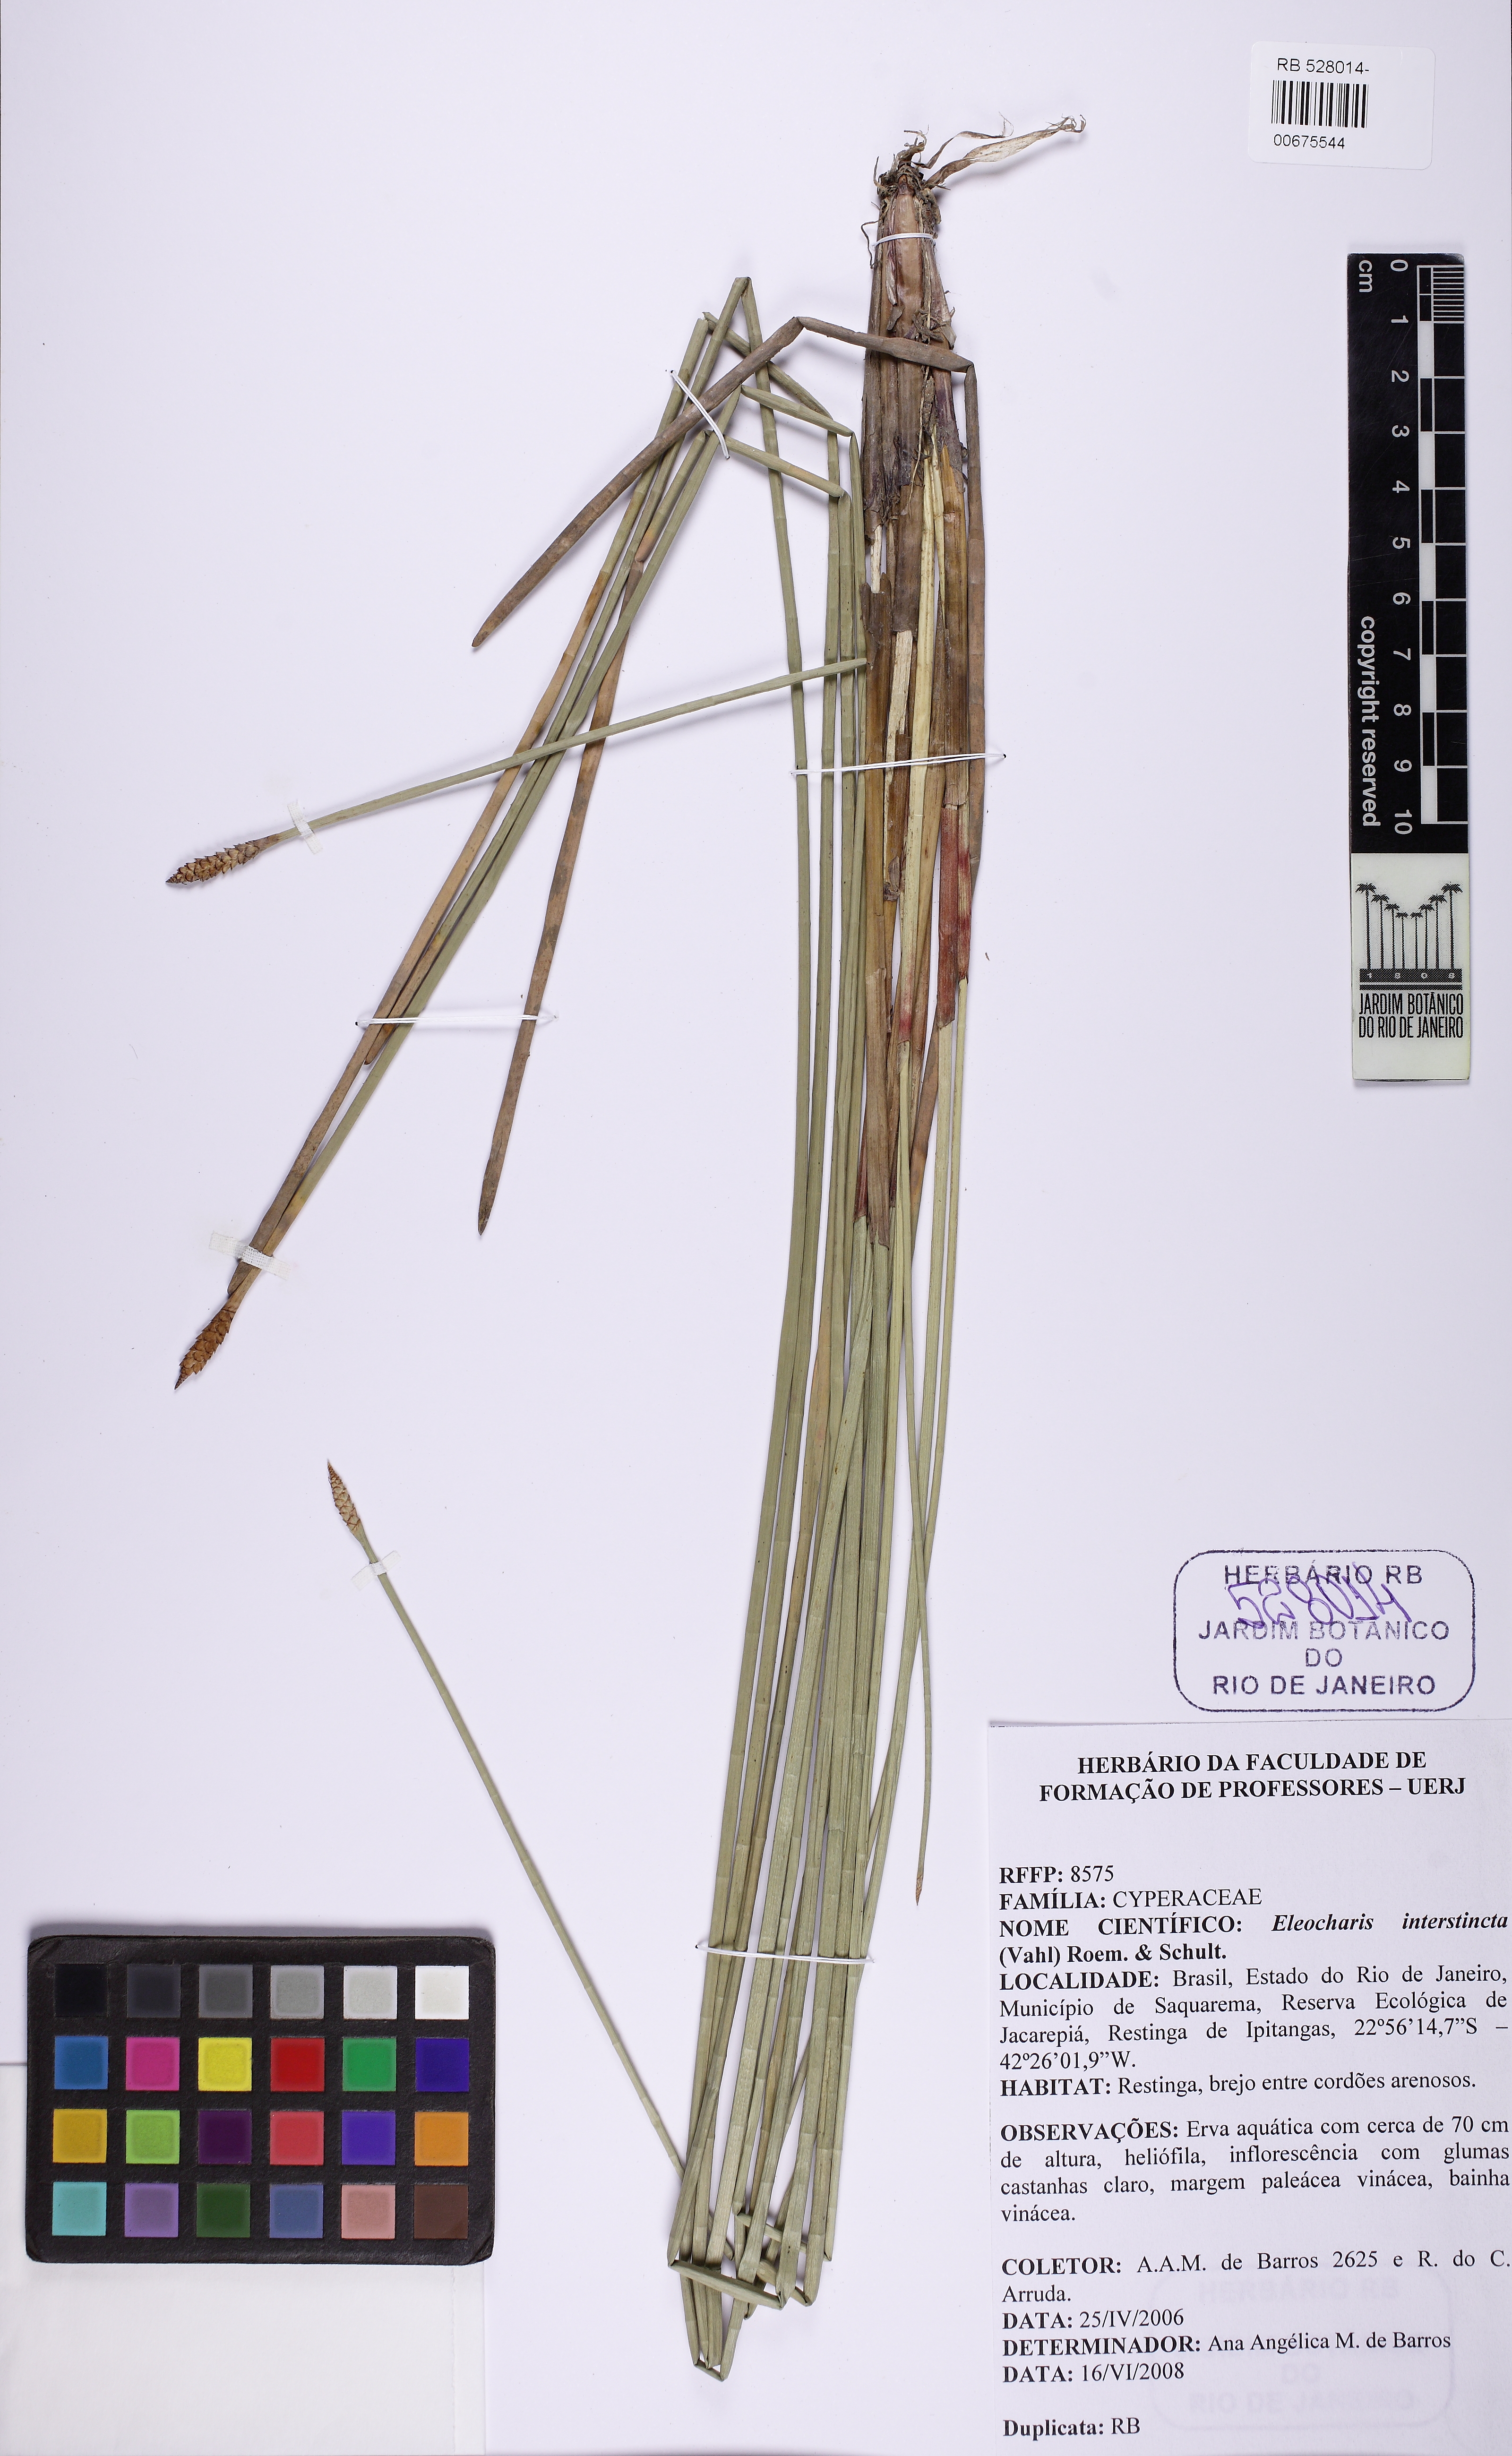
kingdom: Plantae
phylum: Tracheophyta
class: Liliopsida
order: Poales
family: Cyperaceae
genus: Eleocharis
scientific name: Eleocharis interstincta
